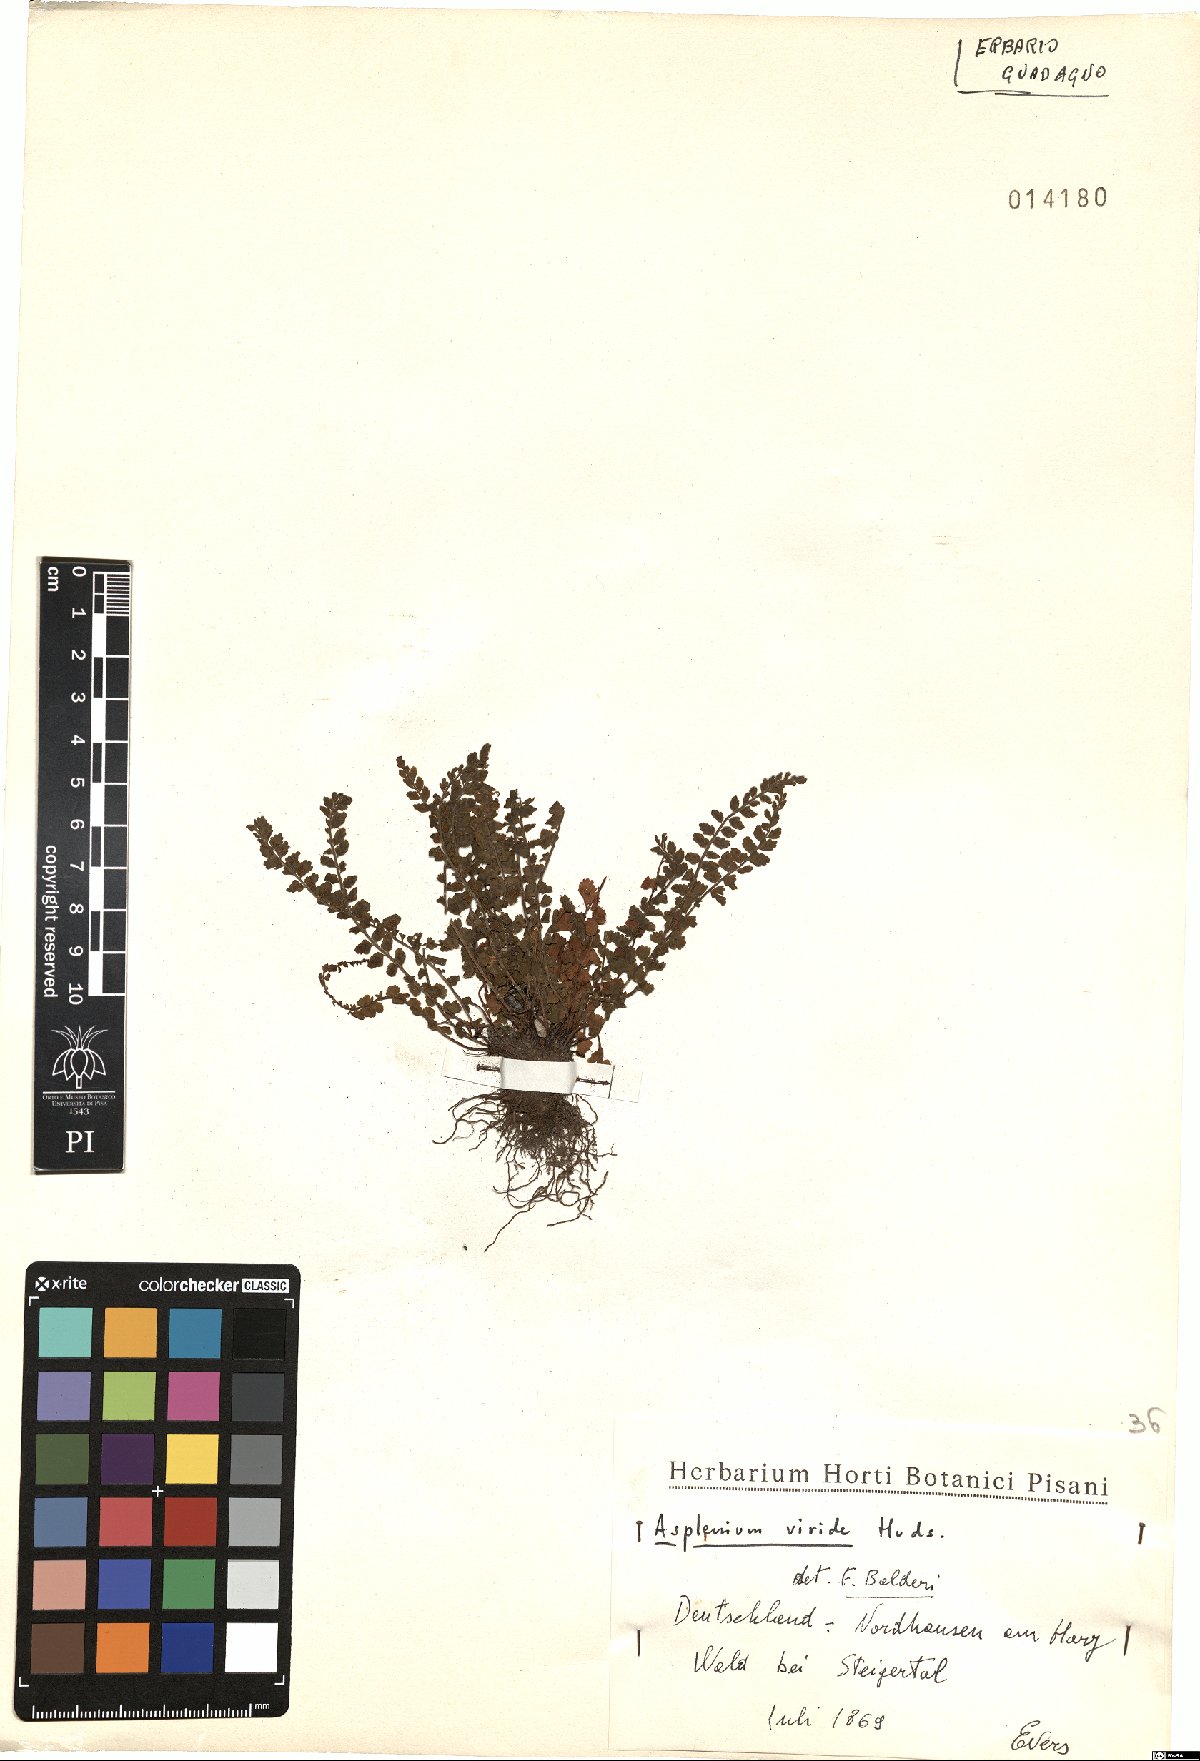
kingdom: Plantae
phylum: Tracheophyta
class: Polypodiopsida
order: Polypodiales
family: Aspleniaceae
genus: Asplenium
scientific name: Asplenium viride
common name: Green spleenwort
